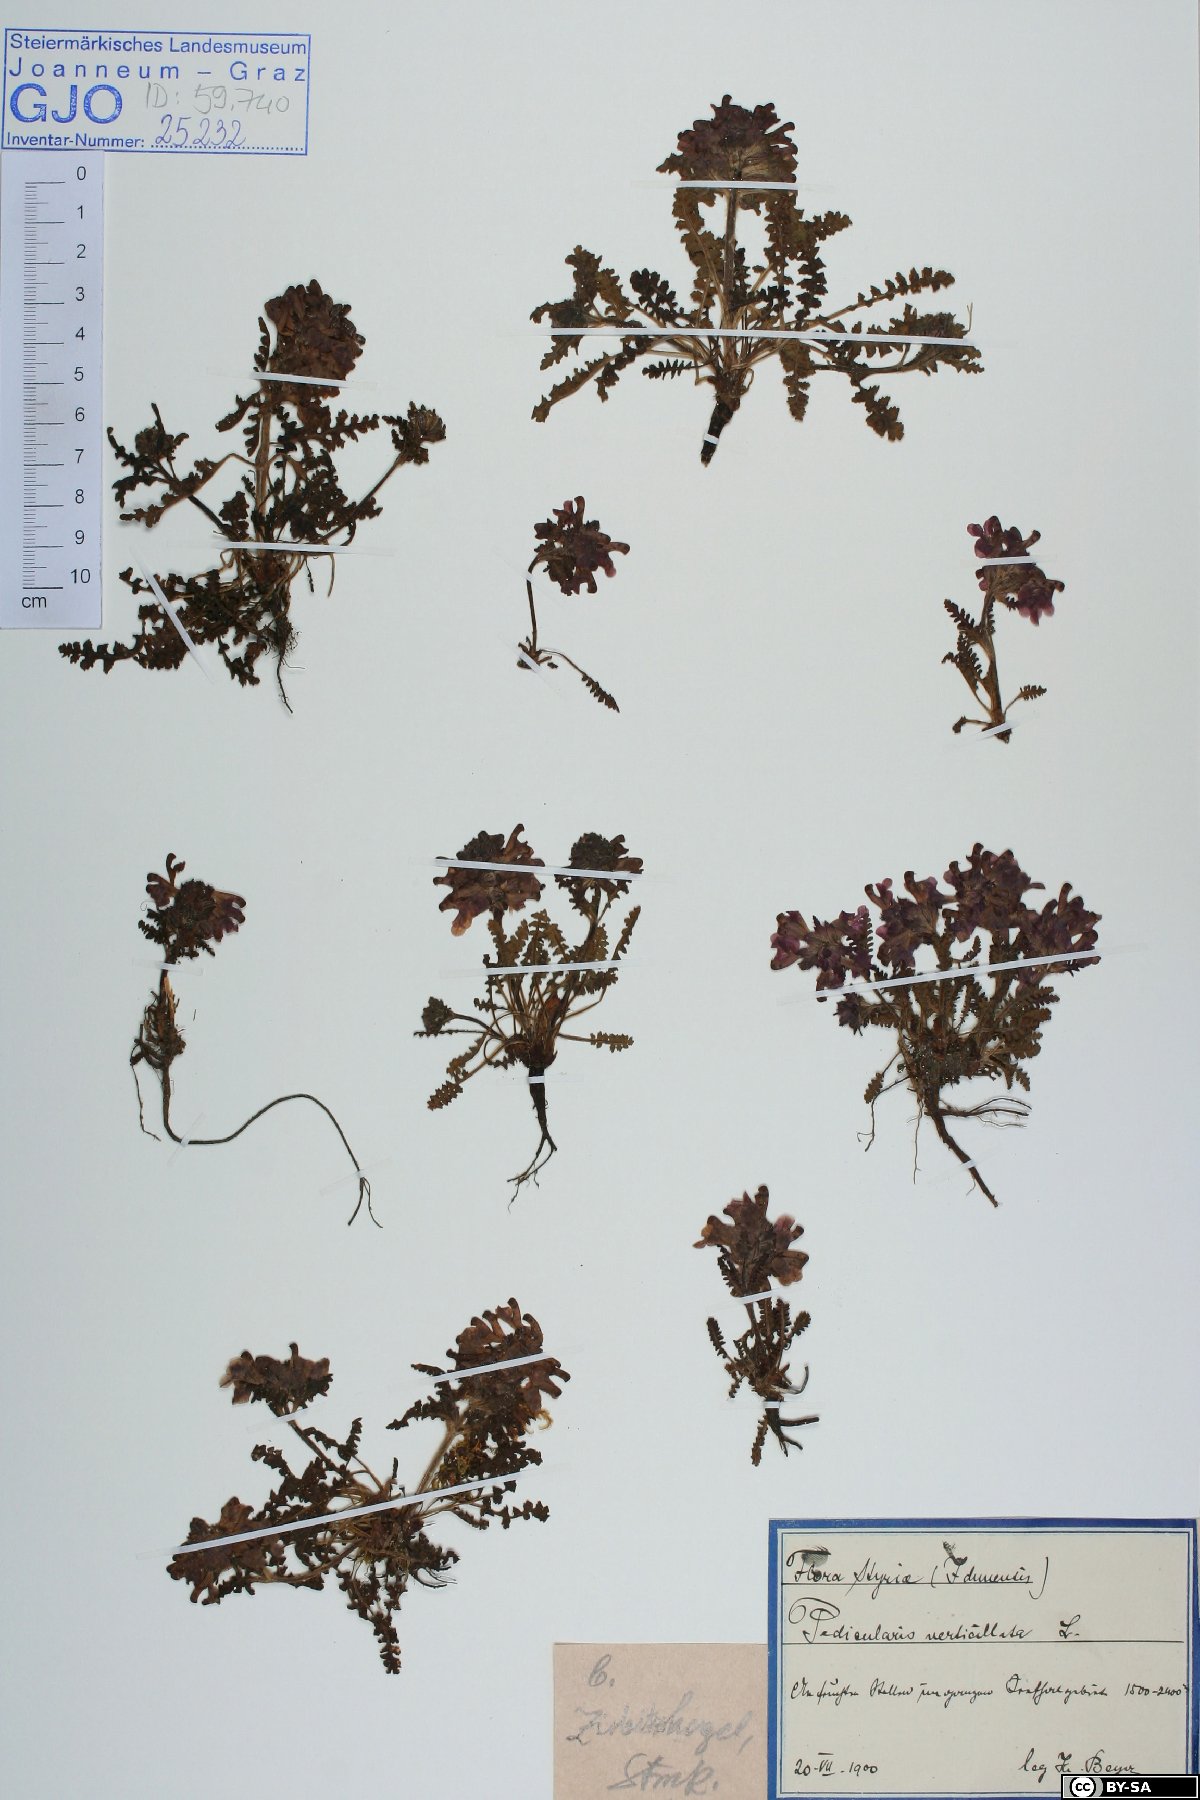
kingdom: Plantae
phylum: Tracheophyta
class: Magnoliopsida
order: Lamiales
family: Orobanchaceae
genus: Pedicularis
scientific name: Pedicularis verticillata
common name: Whorled lousewort
